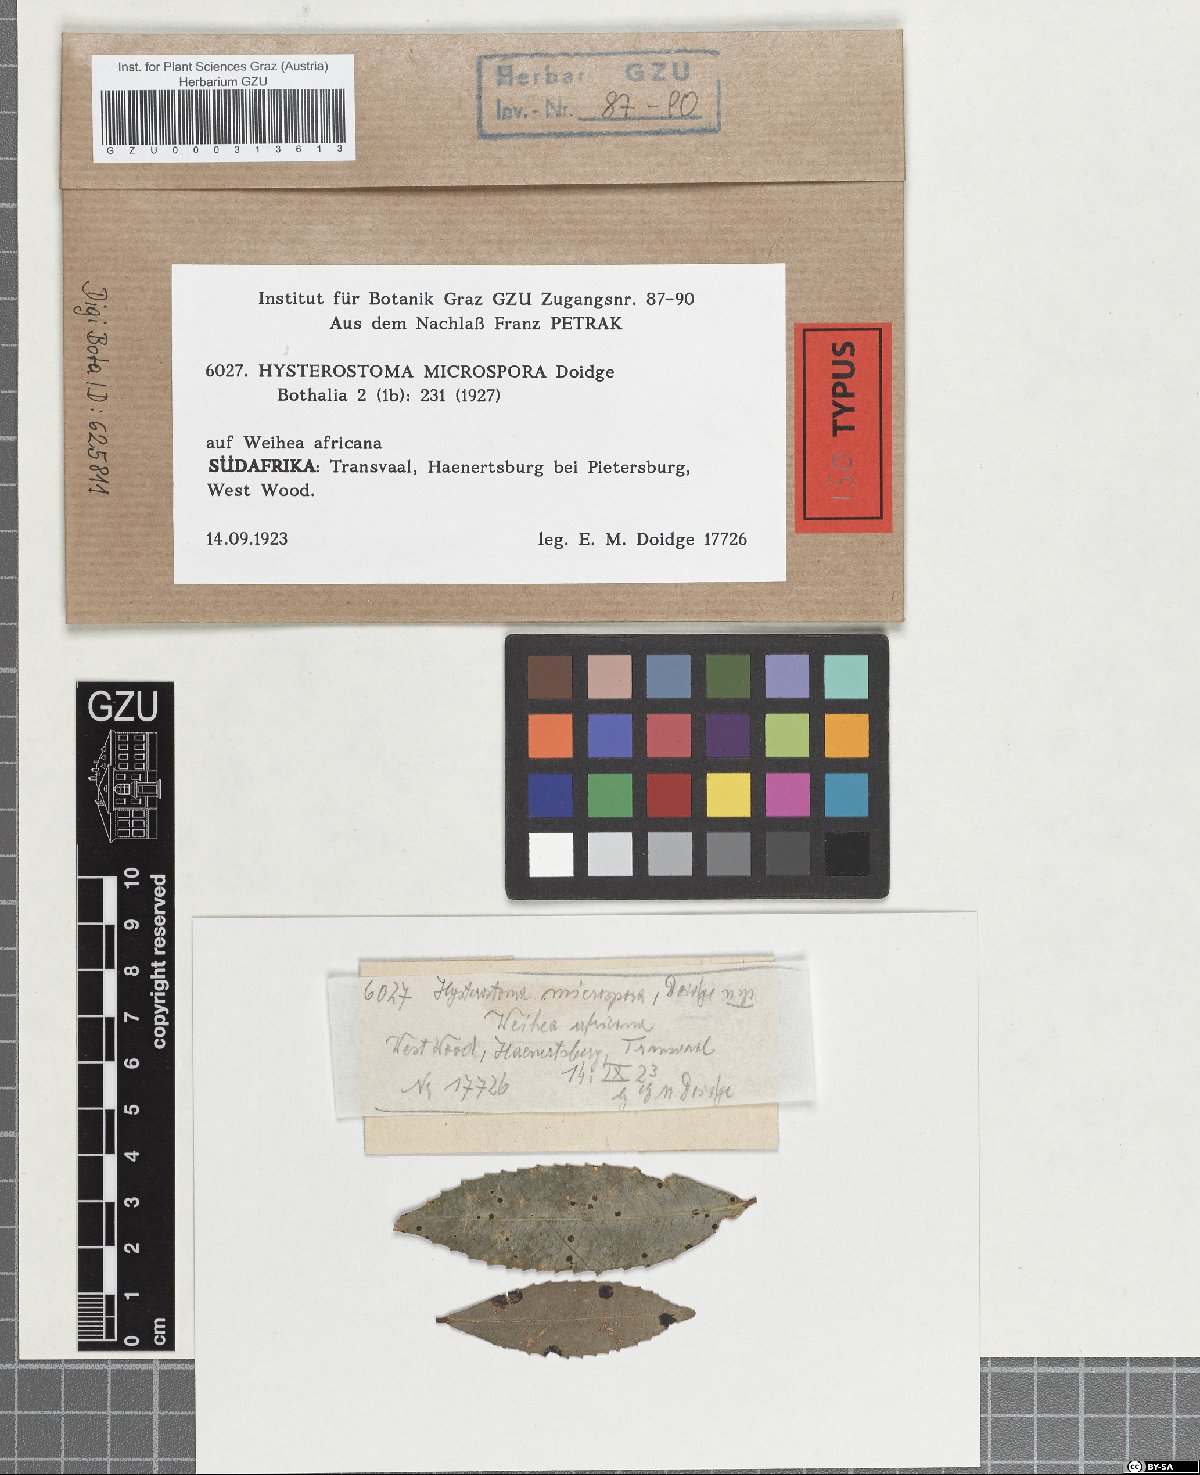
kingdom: Fungi
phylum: Ascomycota
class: Dothideomycetes
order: Asterinales
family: Asterinaceae
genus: Hysterostoma
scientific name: Hysterostoma microspora
